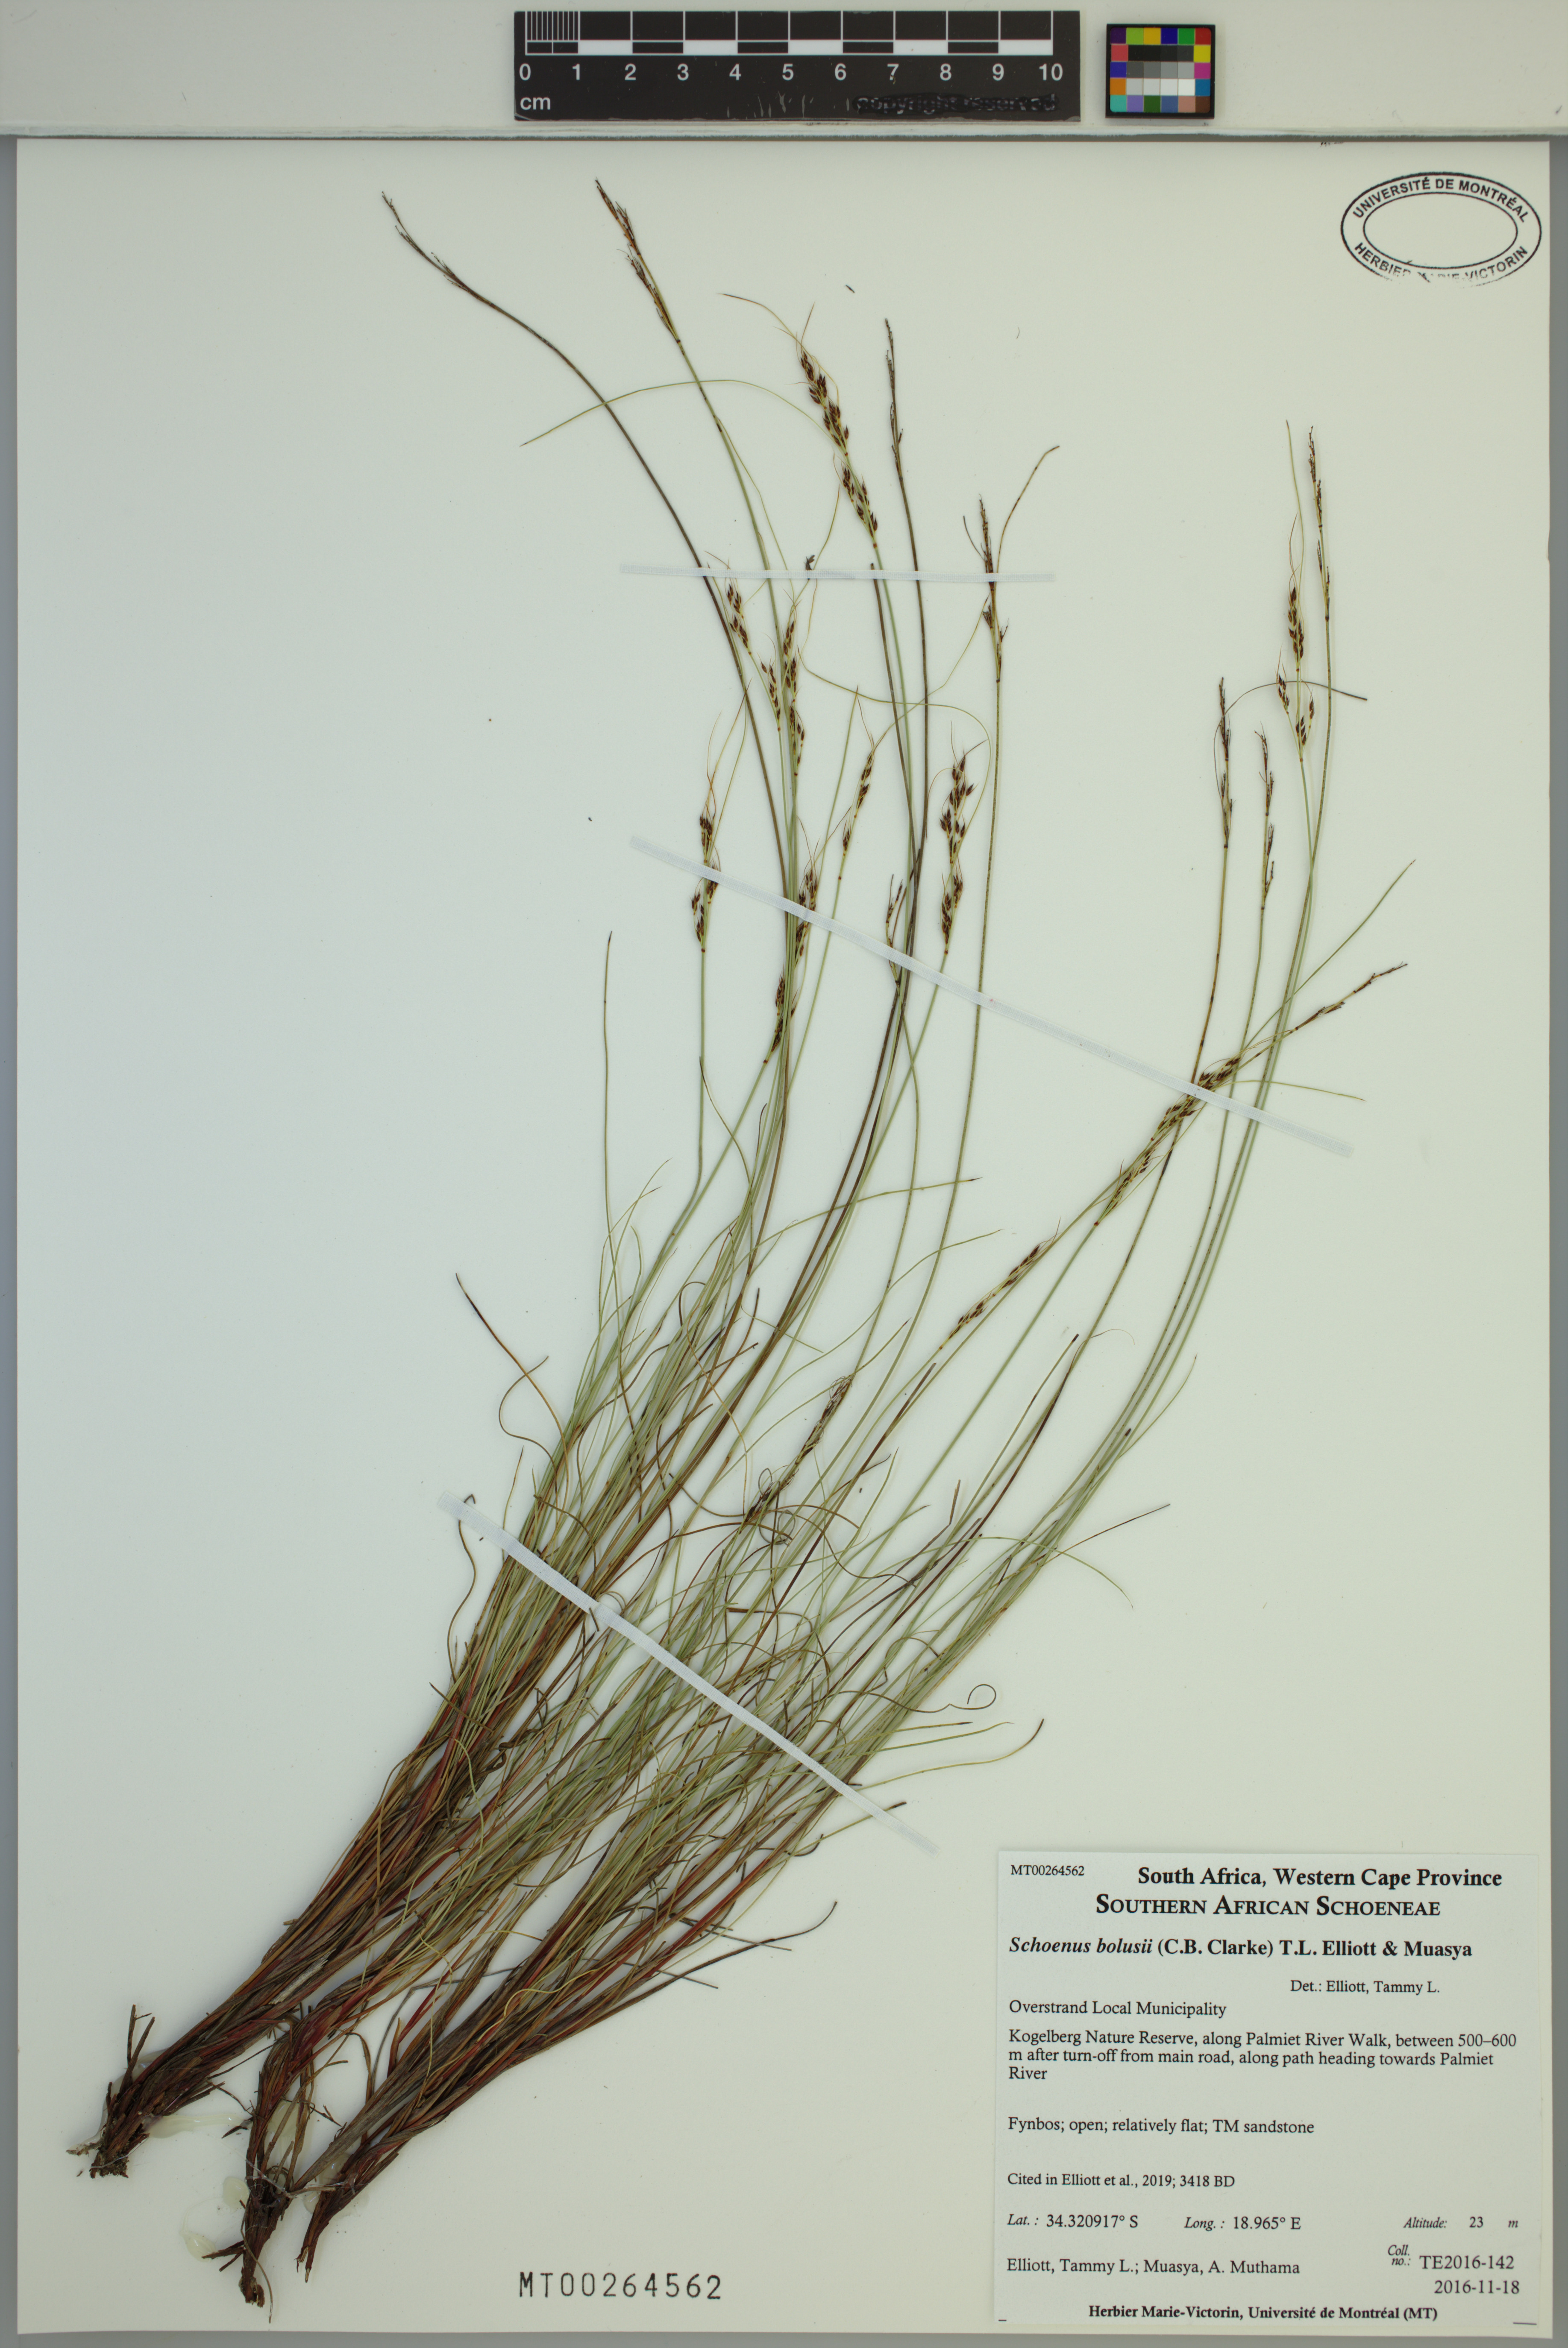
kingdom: Plantae
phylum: Tracheophyta
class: Liliopsida
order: Poales
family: Cyperaceae
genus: Schoenus
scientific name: Schoenus bolusii
